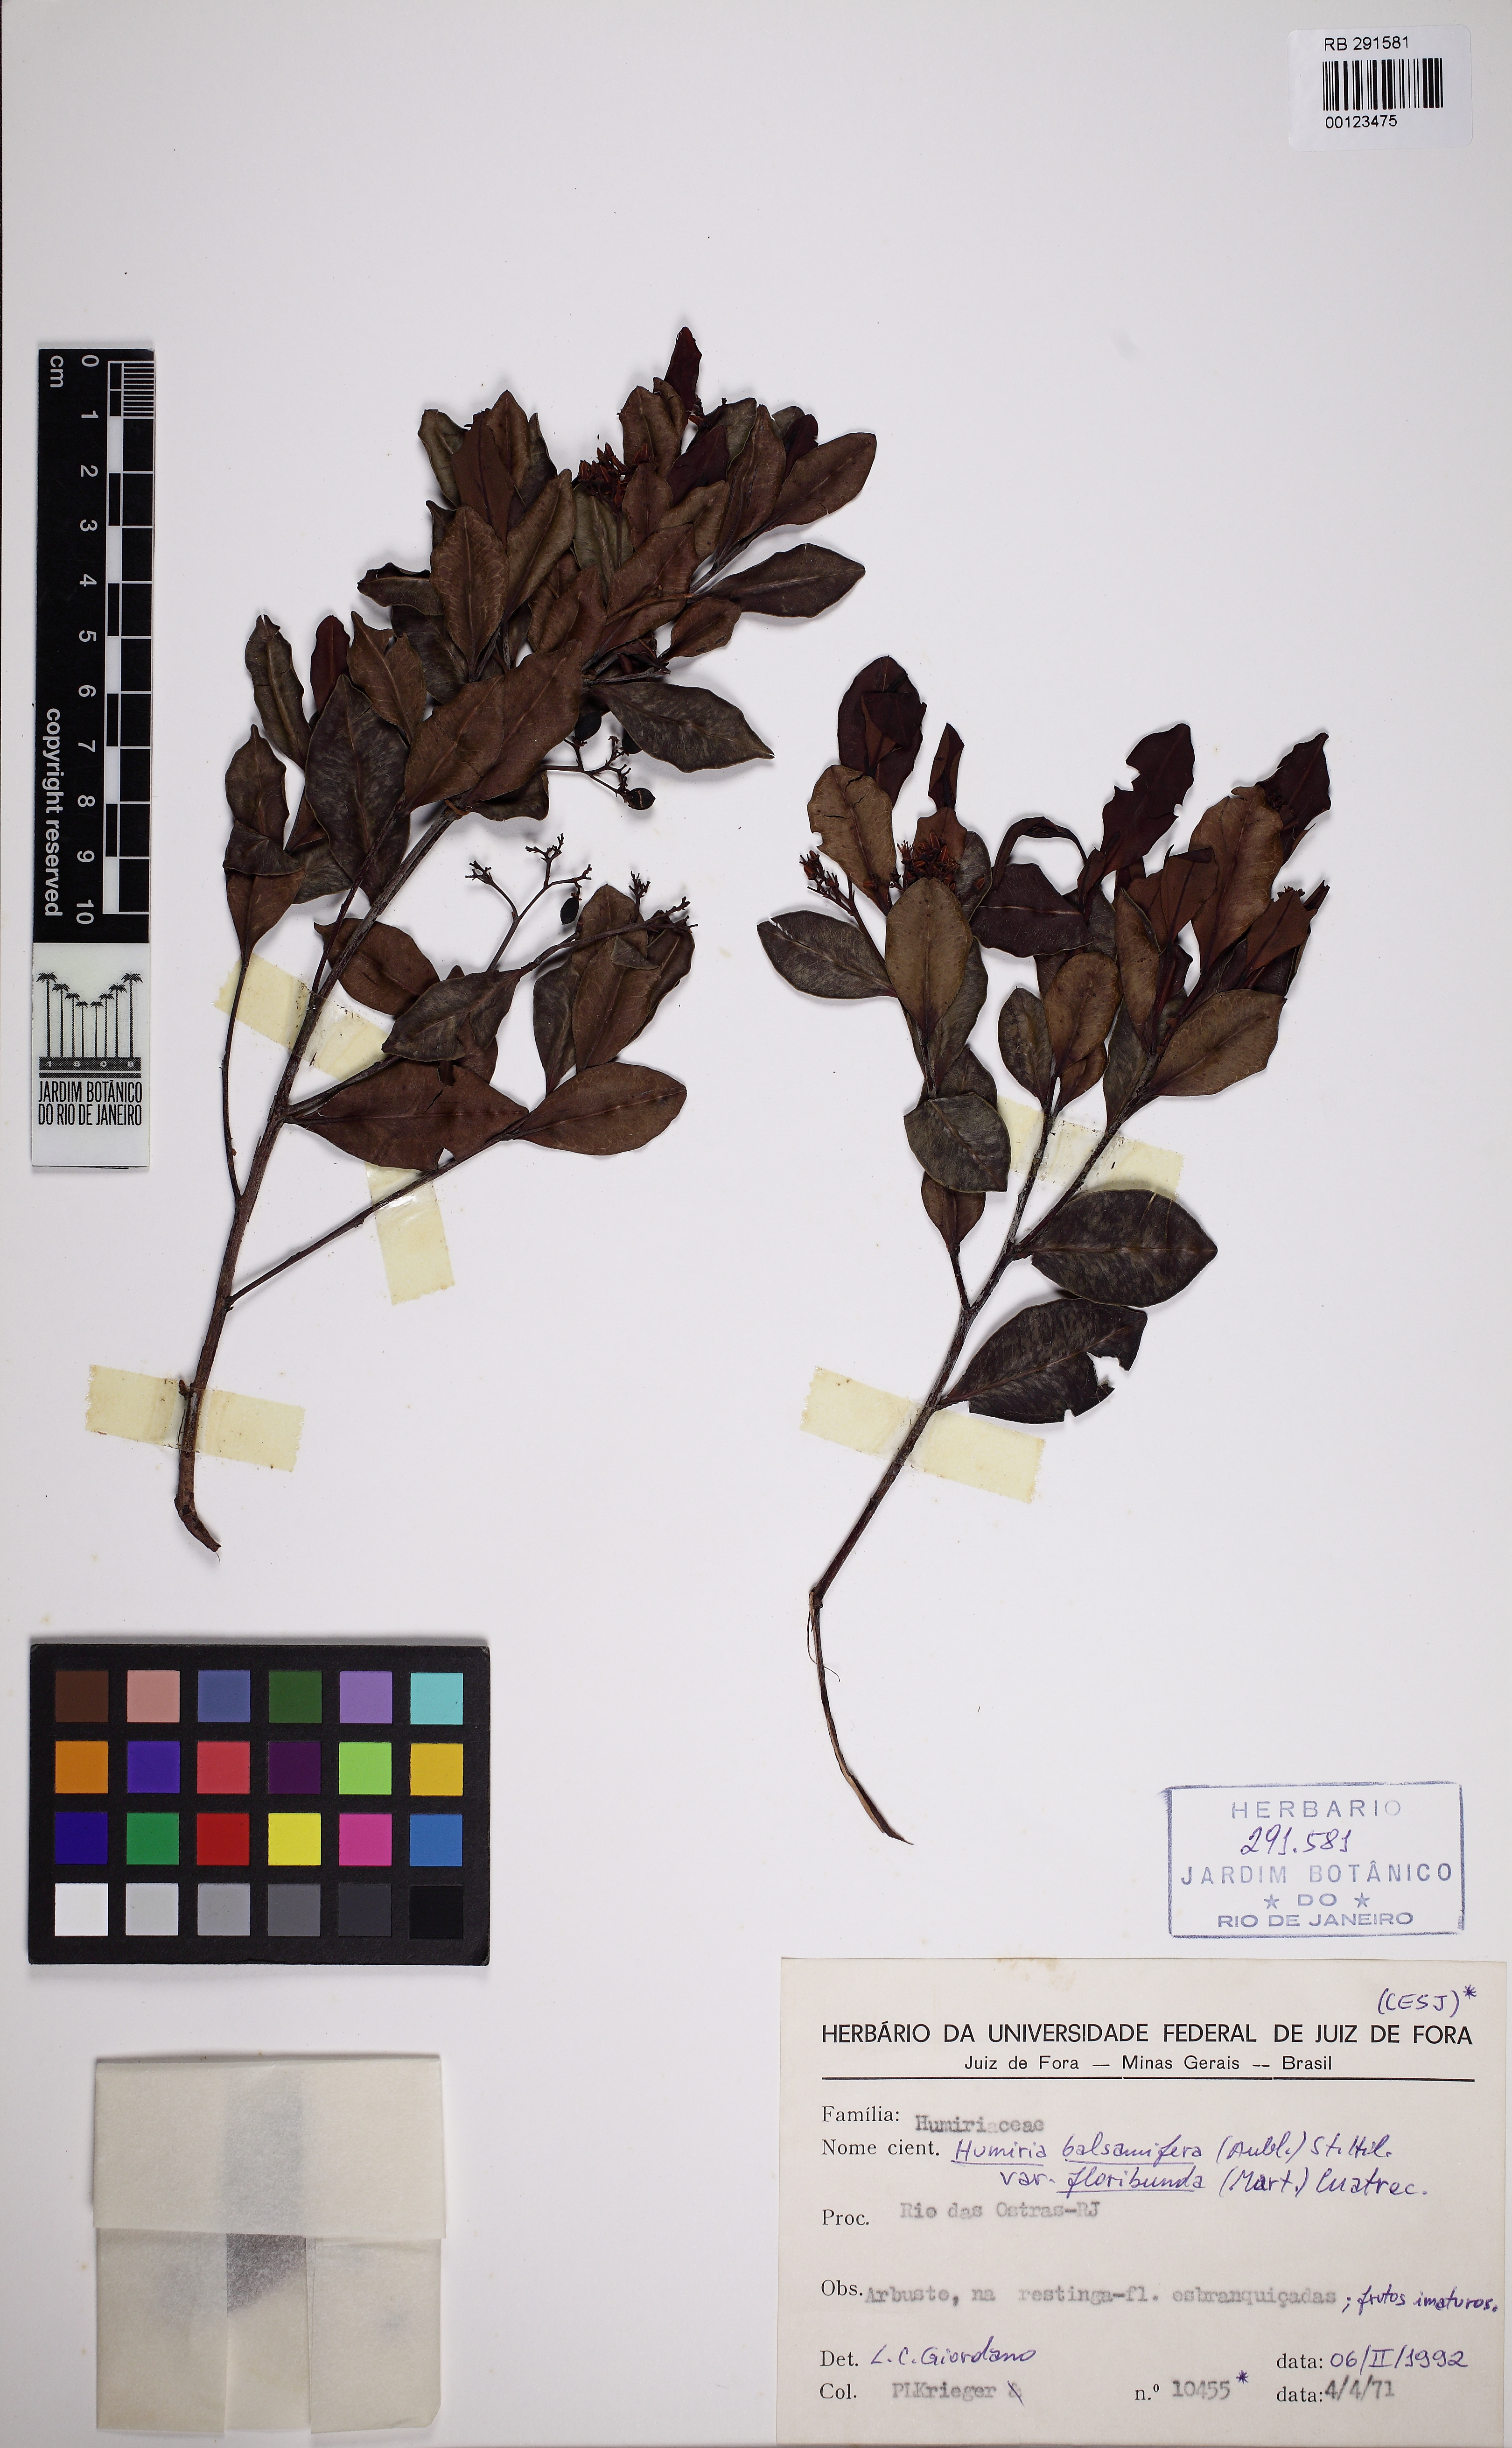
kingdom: Plantae
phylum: Tracheophyta
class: Magnoliopsida
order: Malpighiales
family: Humiriaceae
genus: Humiria
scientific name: Humiria balsamifera
